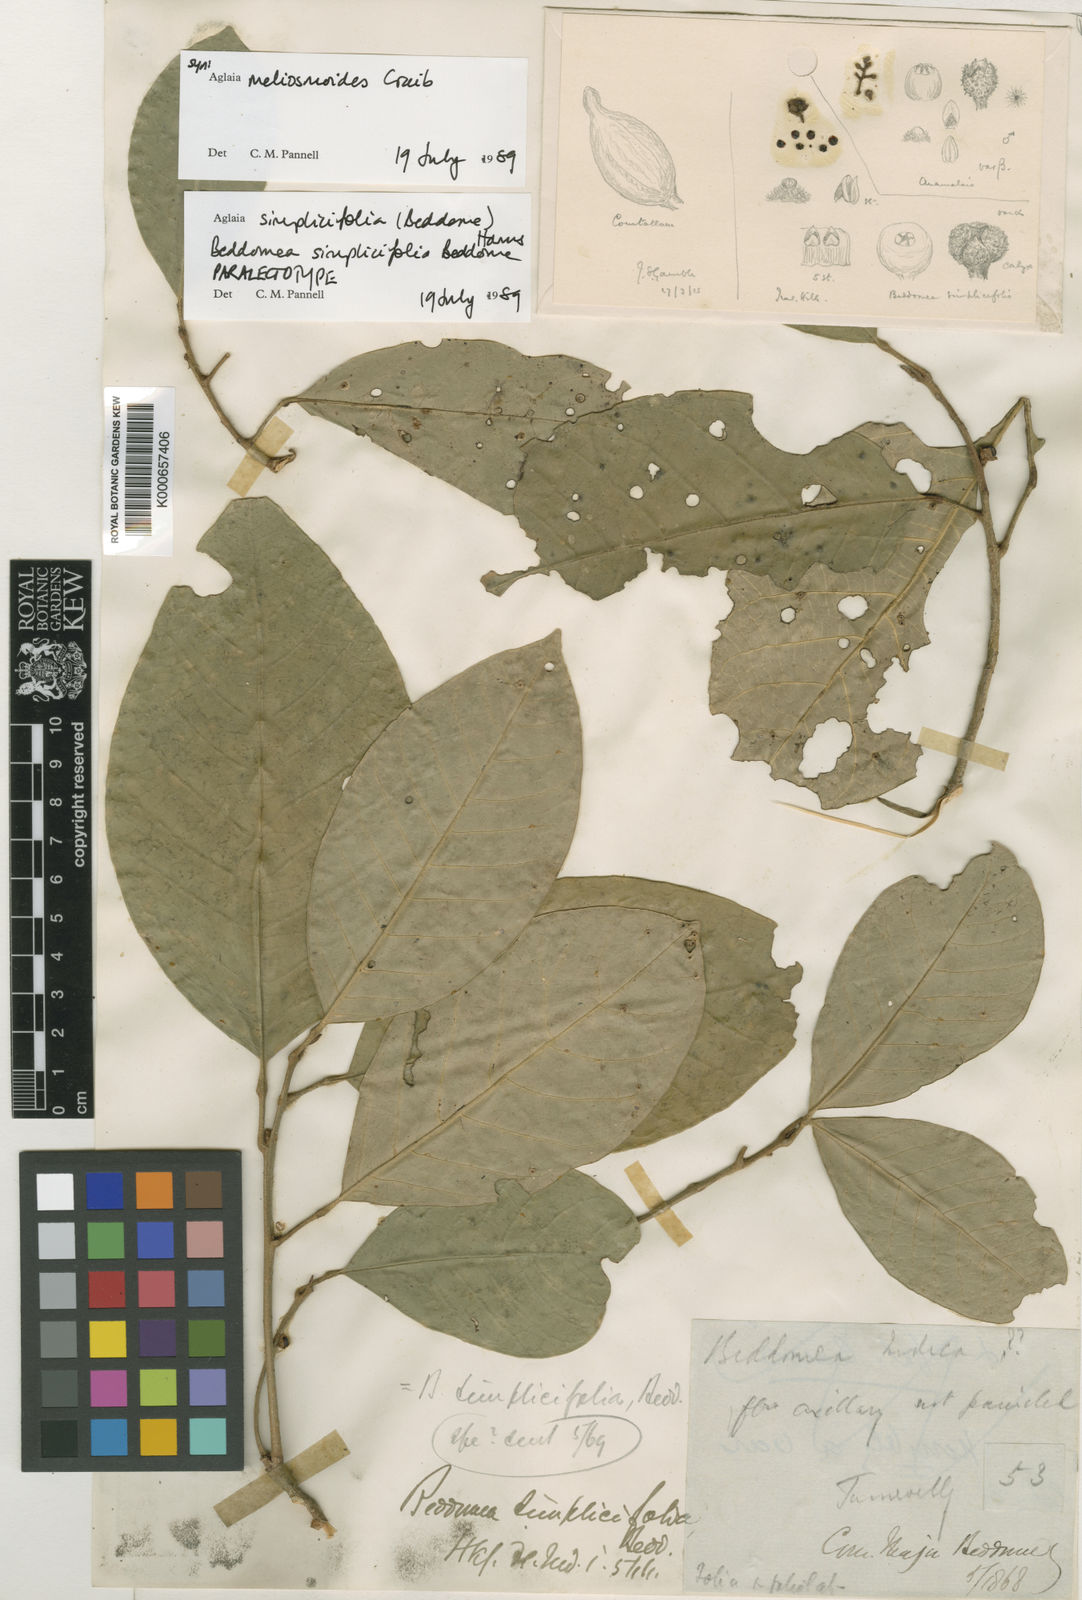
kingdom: Plantae
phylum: Tracheophyta
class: Magnoliopsida
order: Sapindales
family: Meliaceae
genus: Aglaia
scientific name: Aglaia simplicifolia
